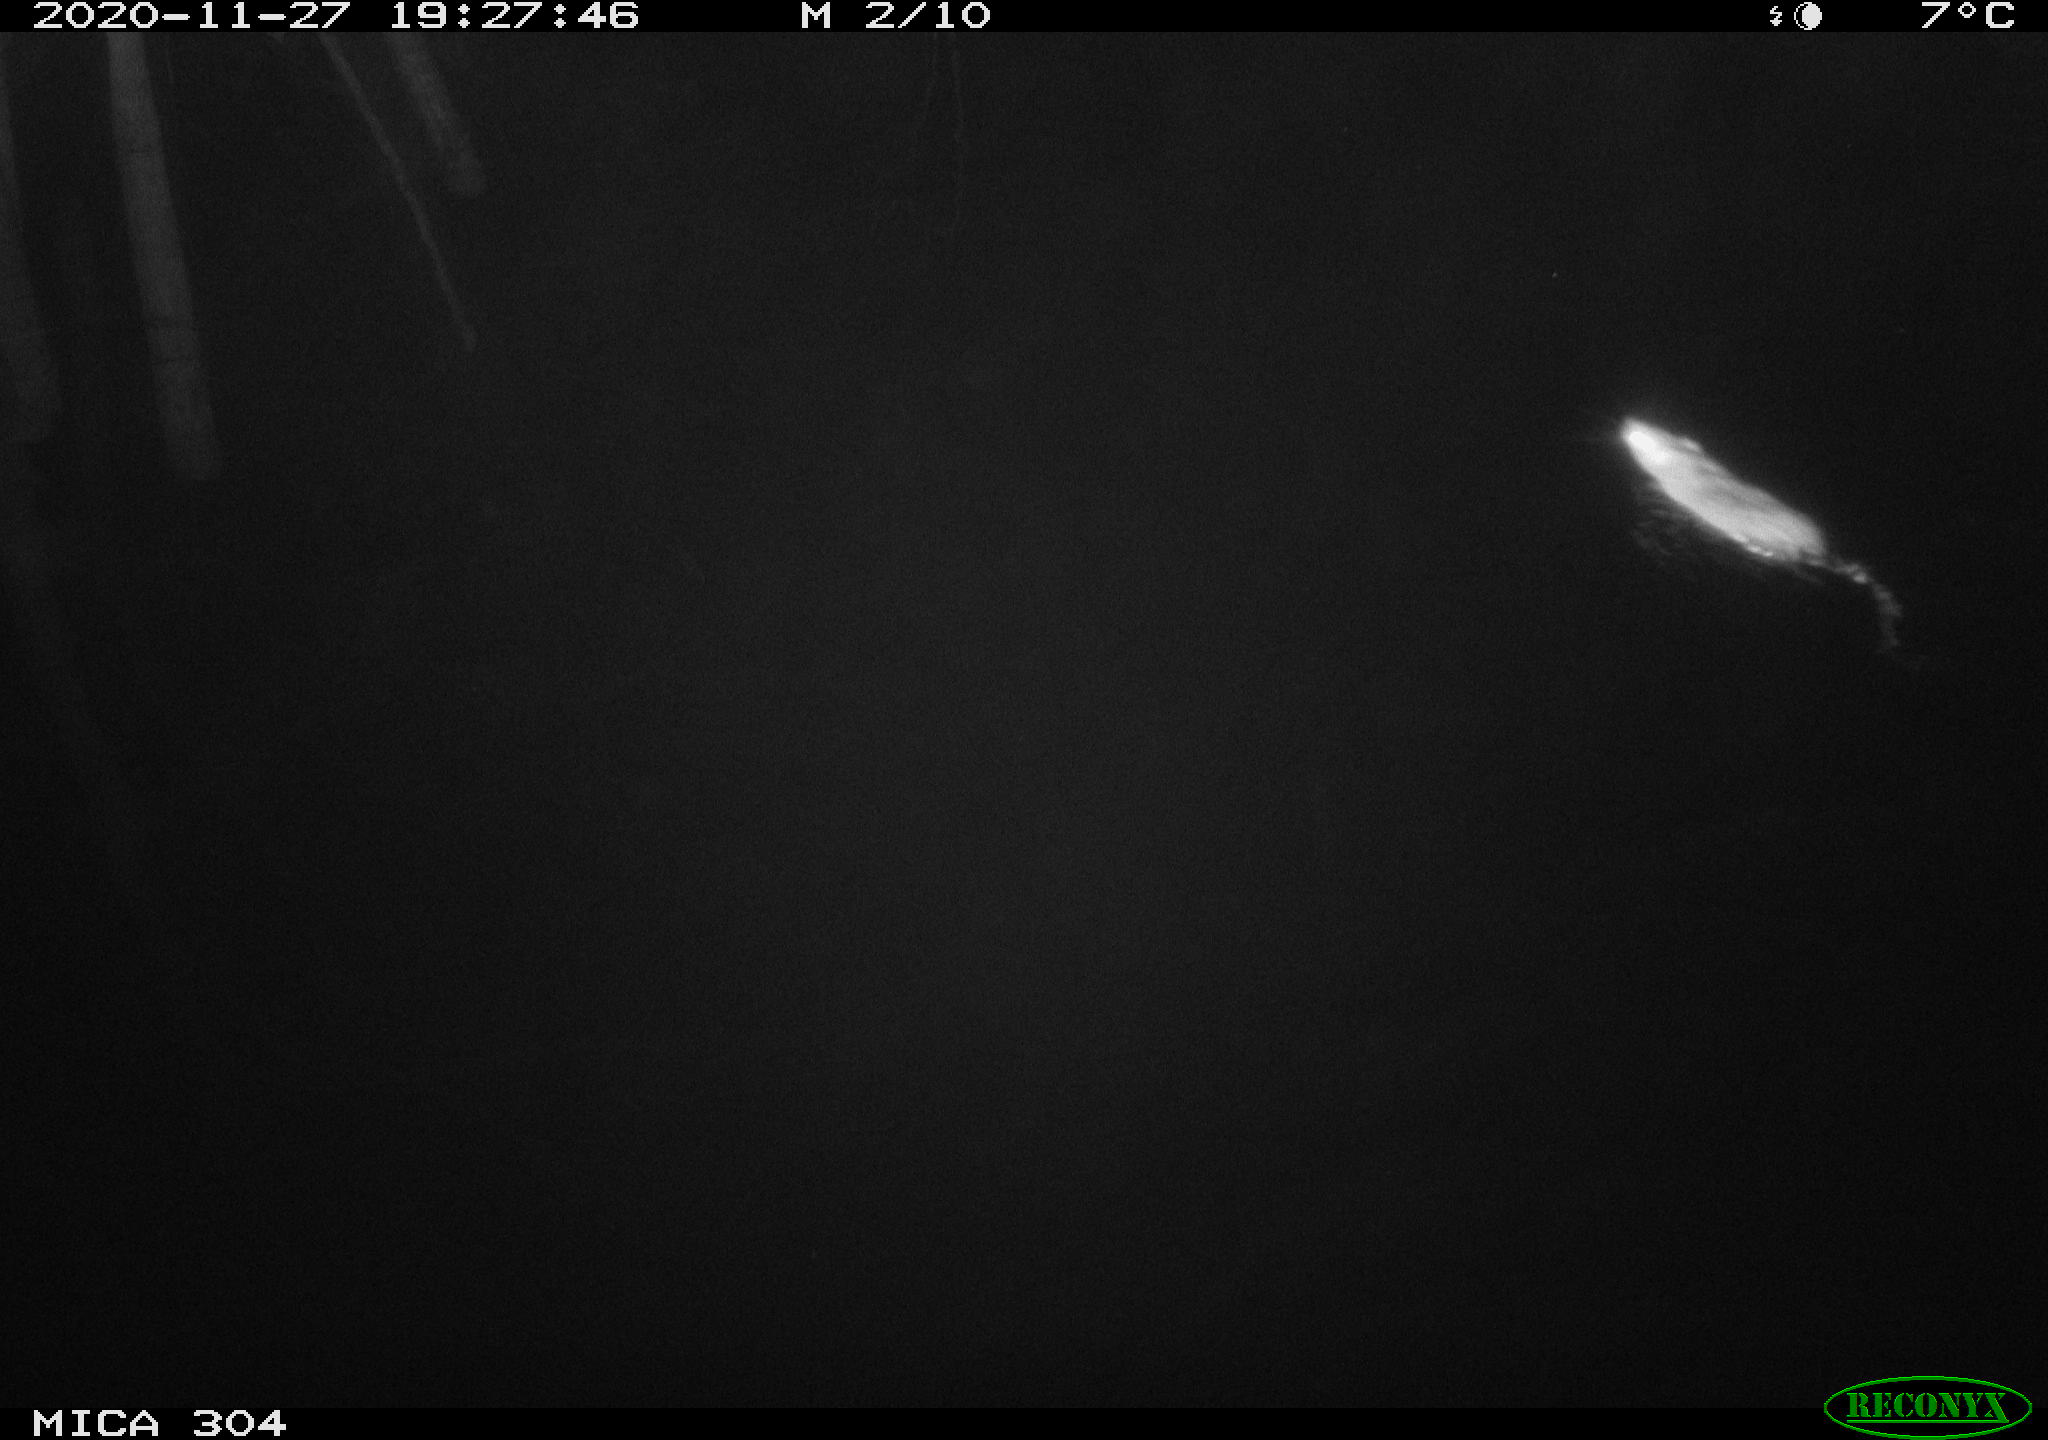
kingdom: Animalia
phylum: Chordata
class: Mammalia
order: Rodentia
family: Muridae
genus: Rattus
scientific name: Rattus norvegicus
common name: Brown rat
